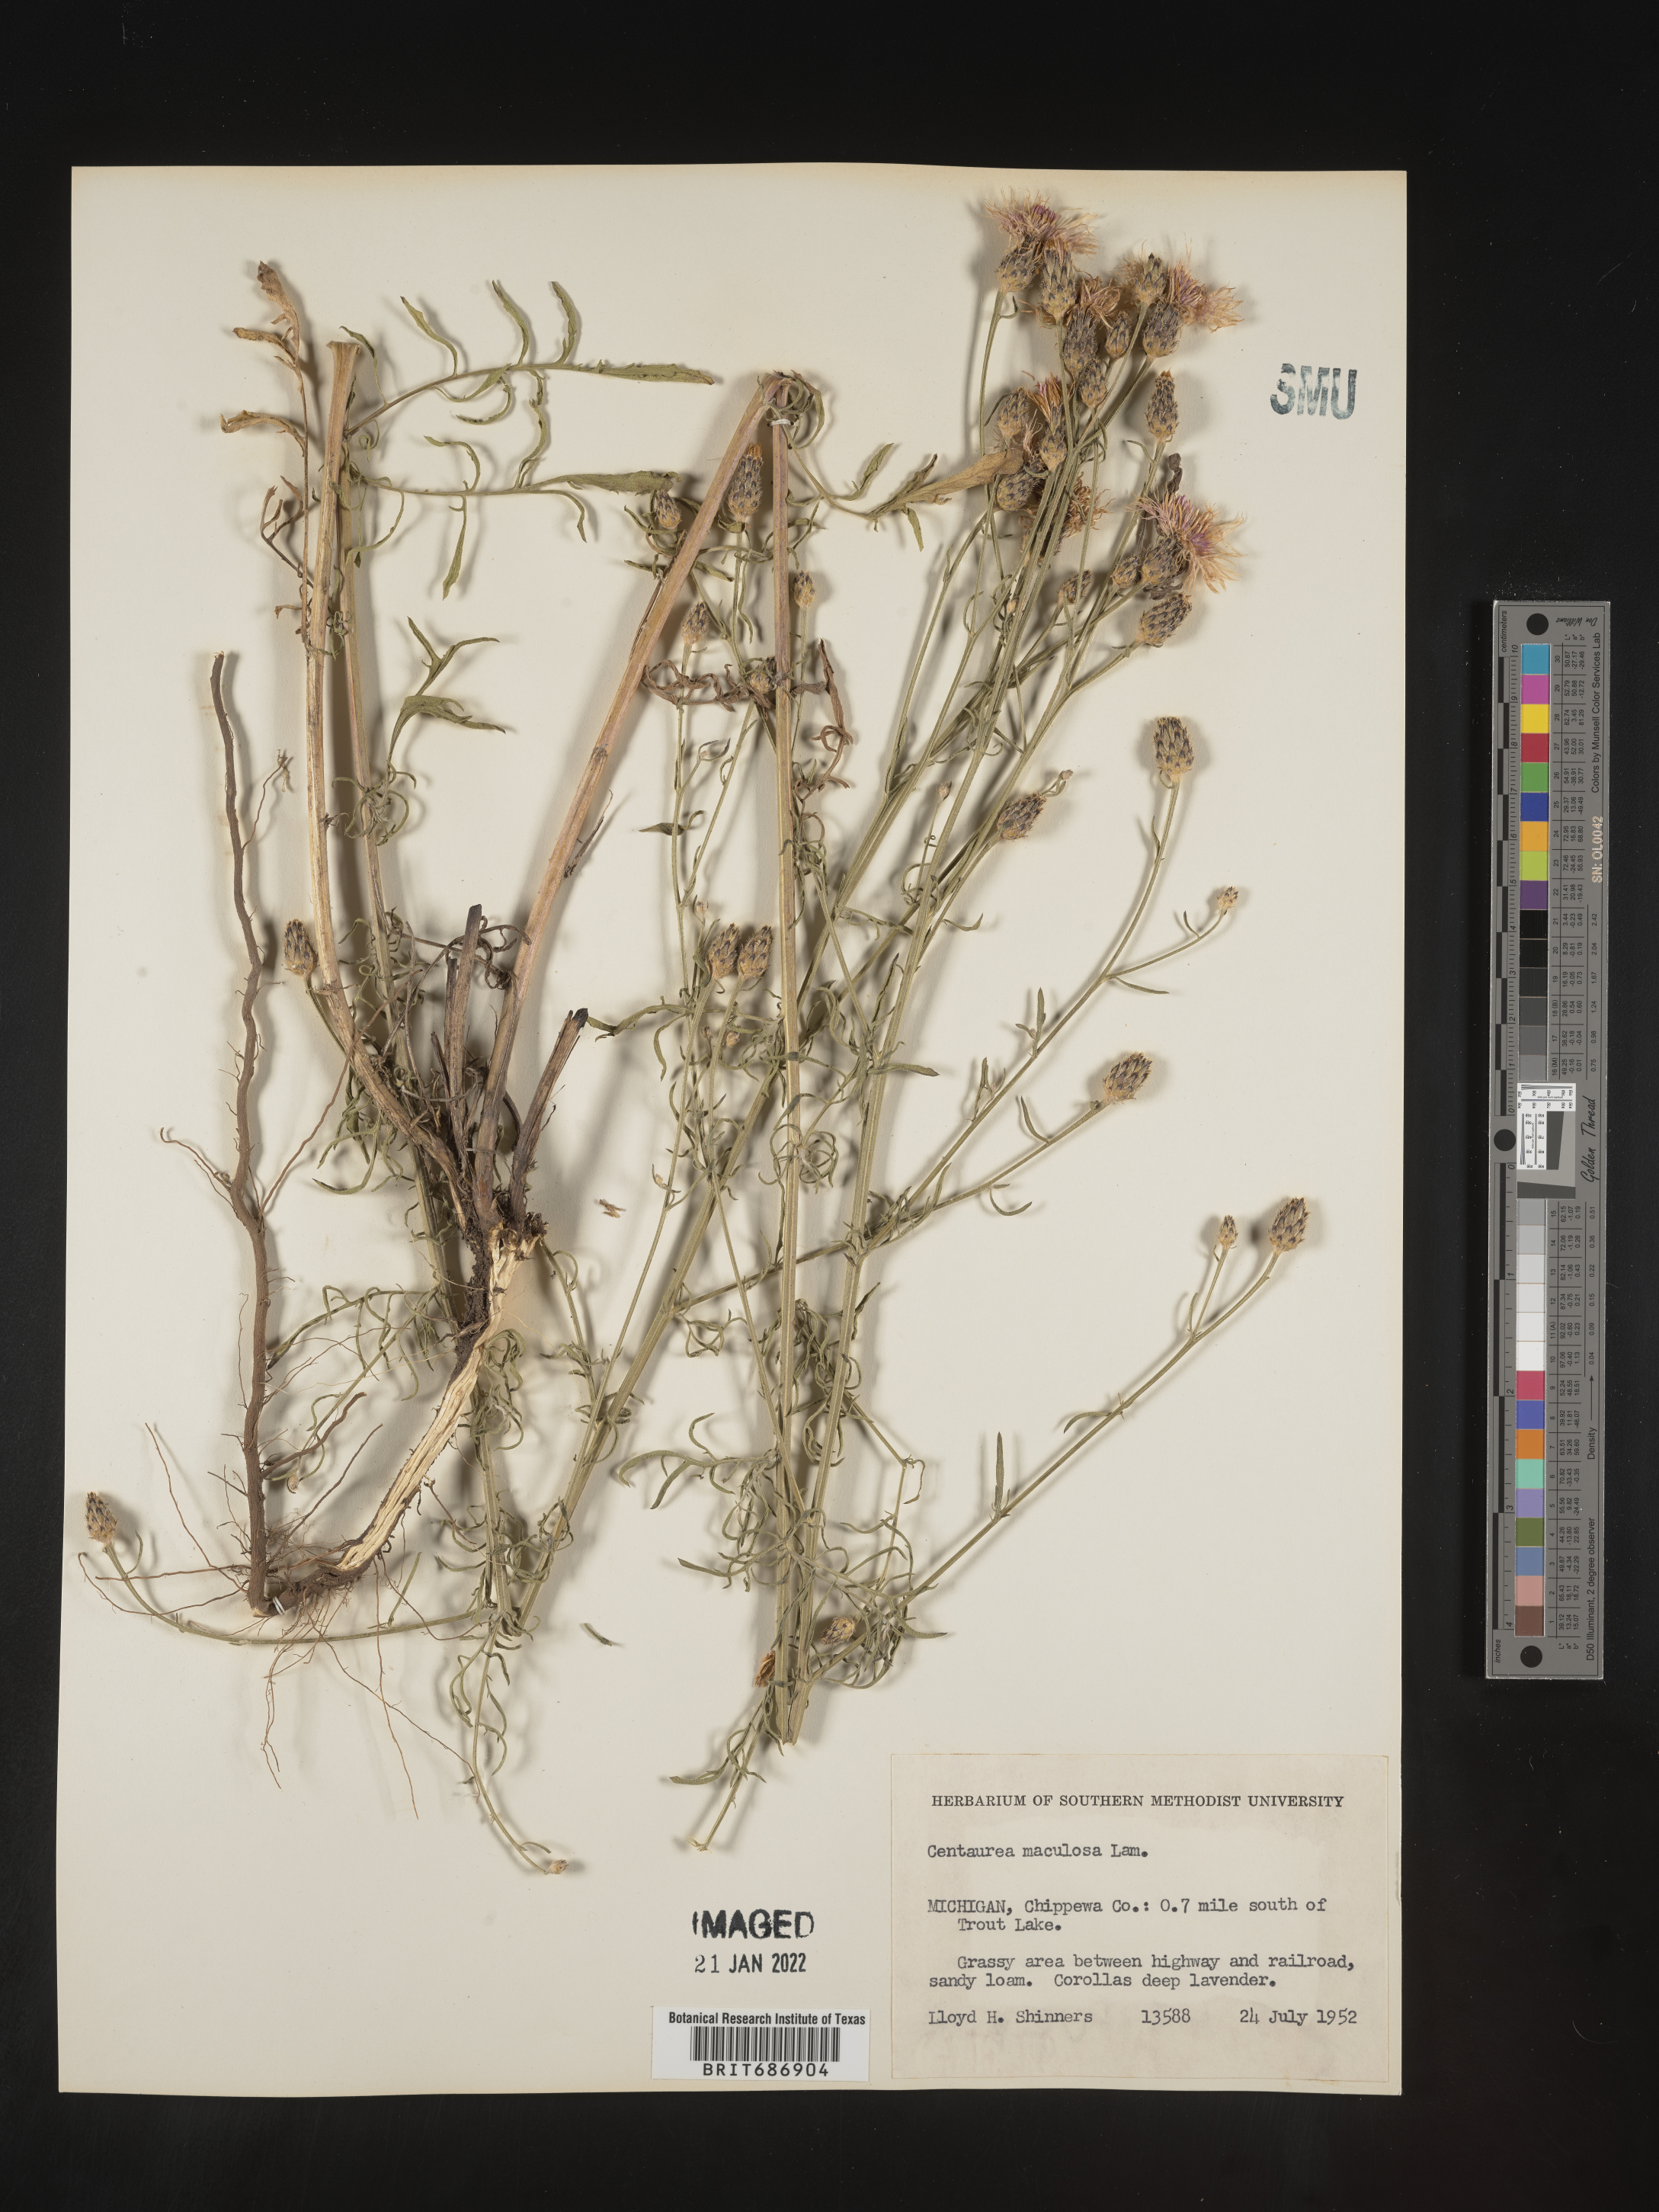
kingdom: Plantae
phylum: Tracheophyta
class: Magnoliopsida
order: Asterales
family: Asteraceae
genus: Centaurea
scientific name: Centaurea stoebe
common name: Spotted knapweed
